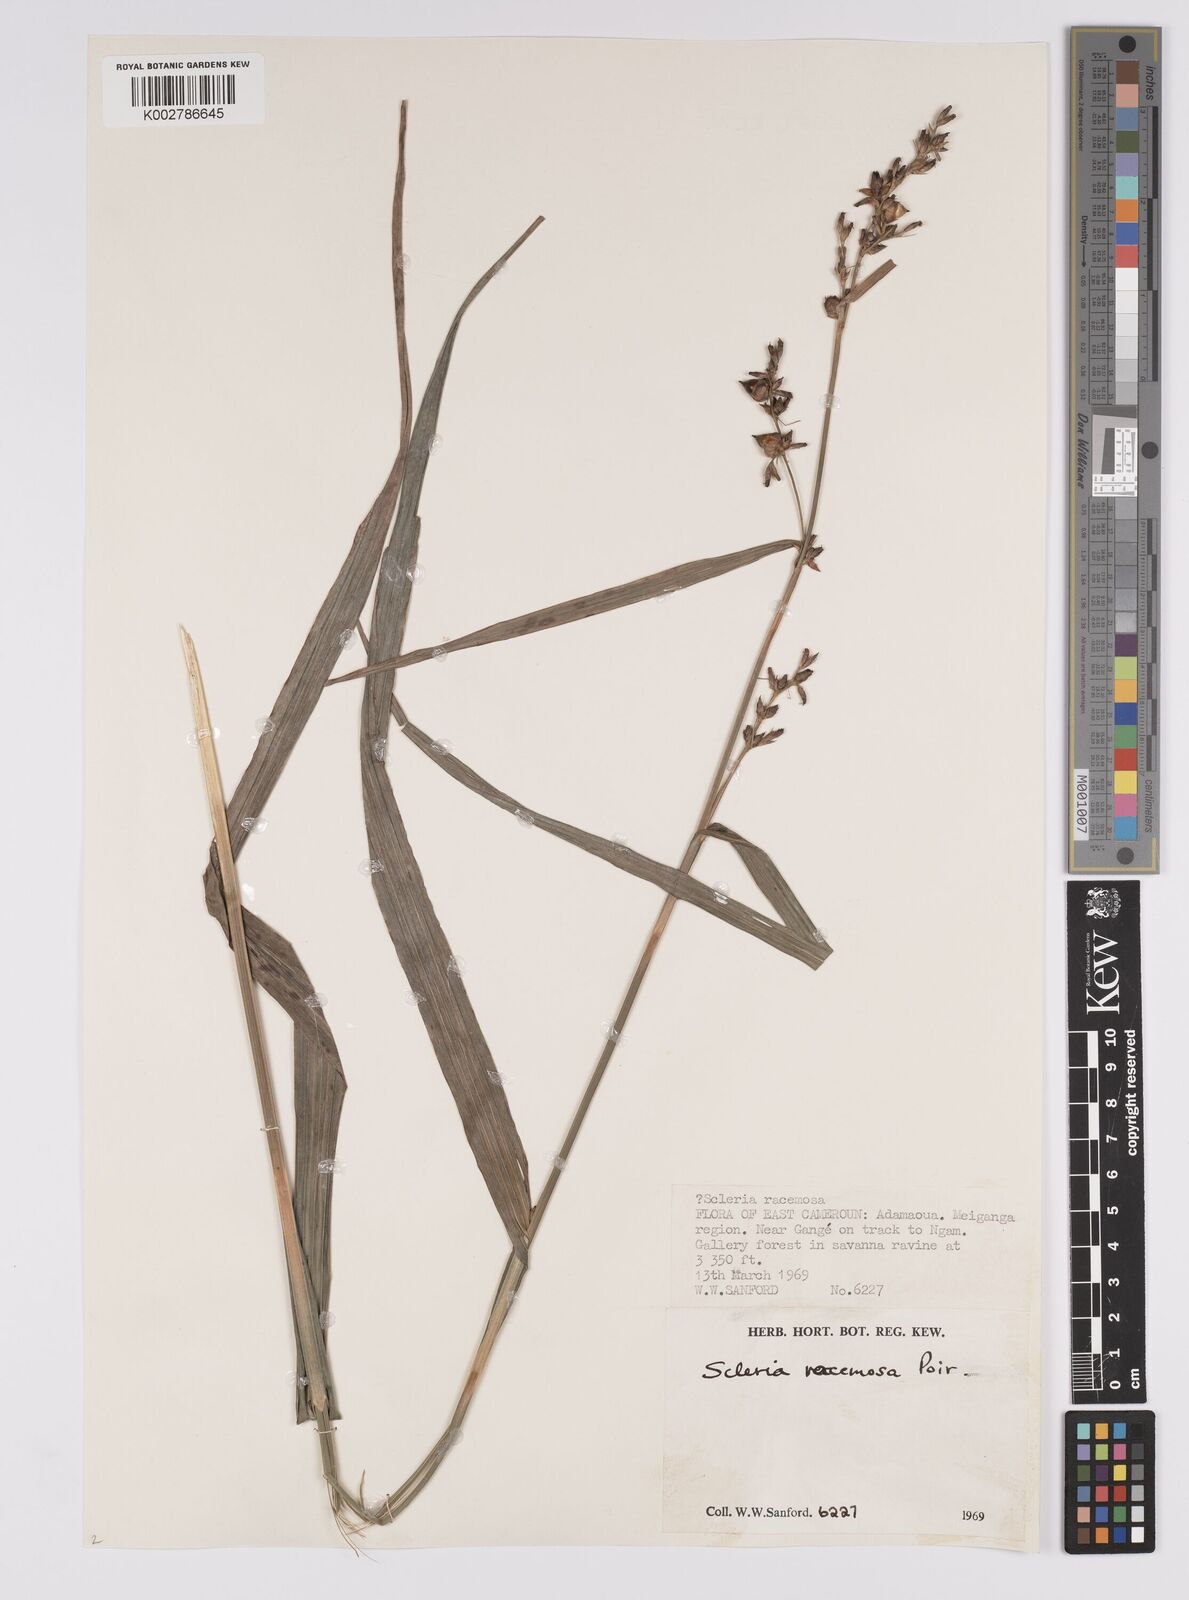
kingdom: Plantae
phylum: Tracheophyta
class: Liliopsida
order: Poales
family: Cyperaceae
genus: Scleria
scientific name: Scleria racemosa
